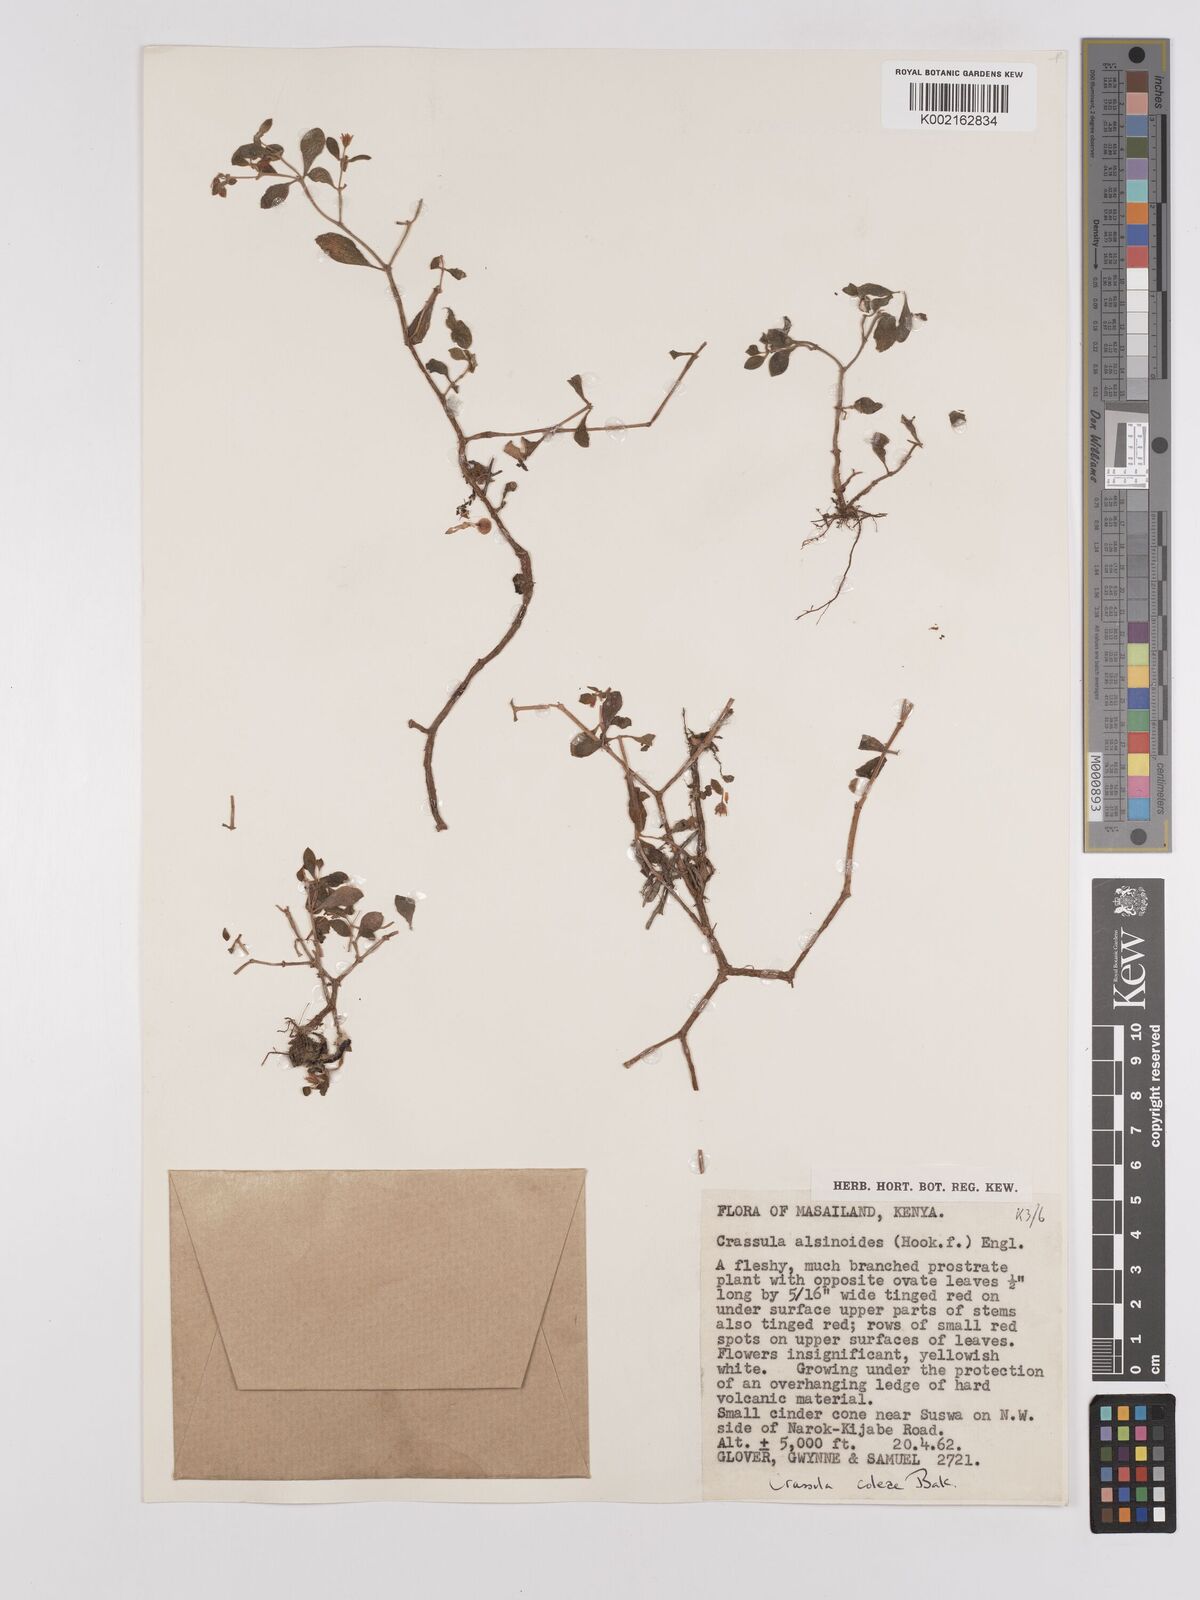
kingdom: Plantae
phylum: Tracheophyta
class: Magnoliopsida
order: Saxifragales
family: Crassulaceae
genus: Crassula
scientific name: Crassula volkensii
